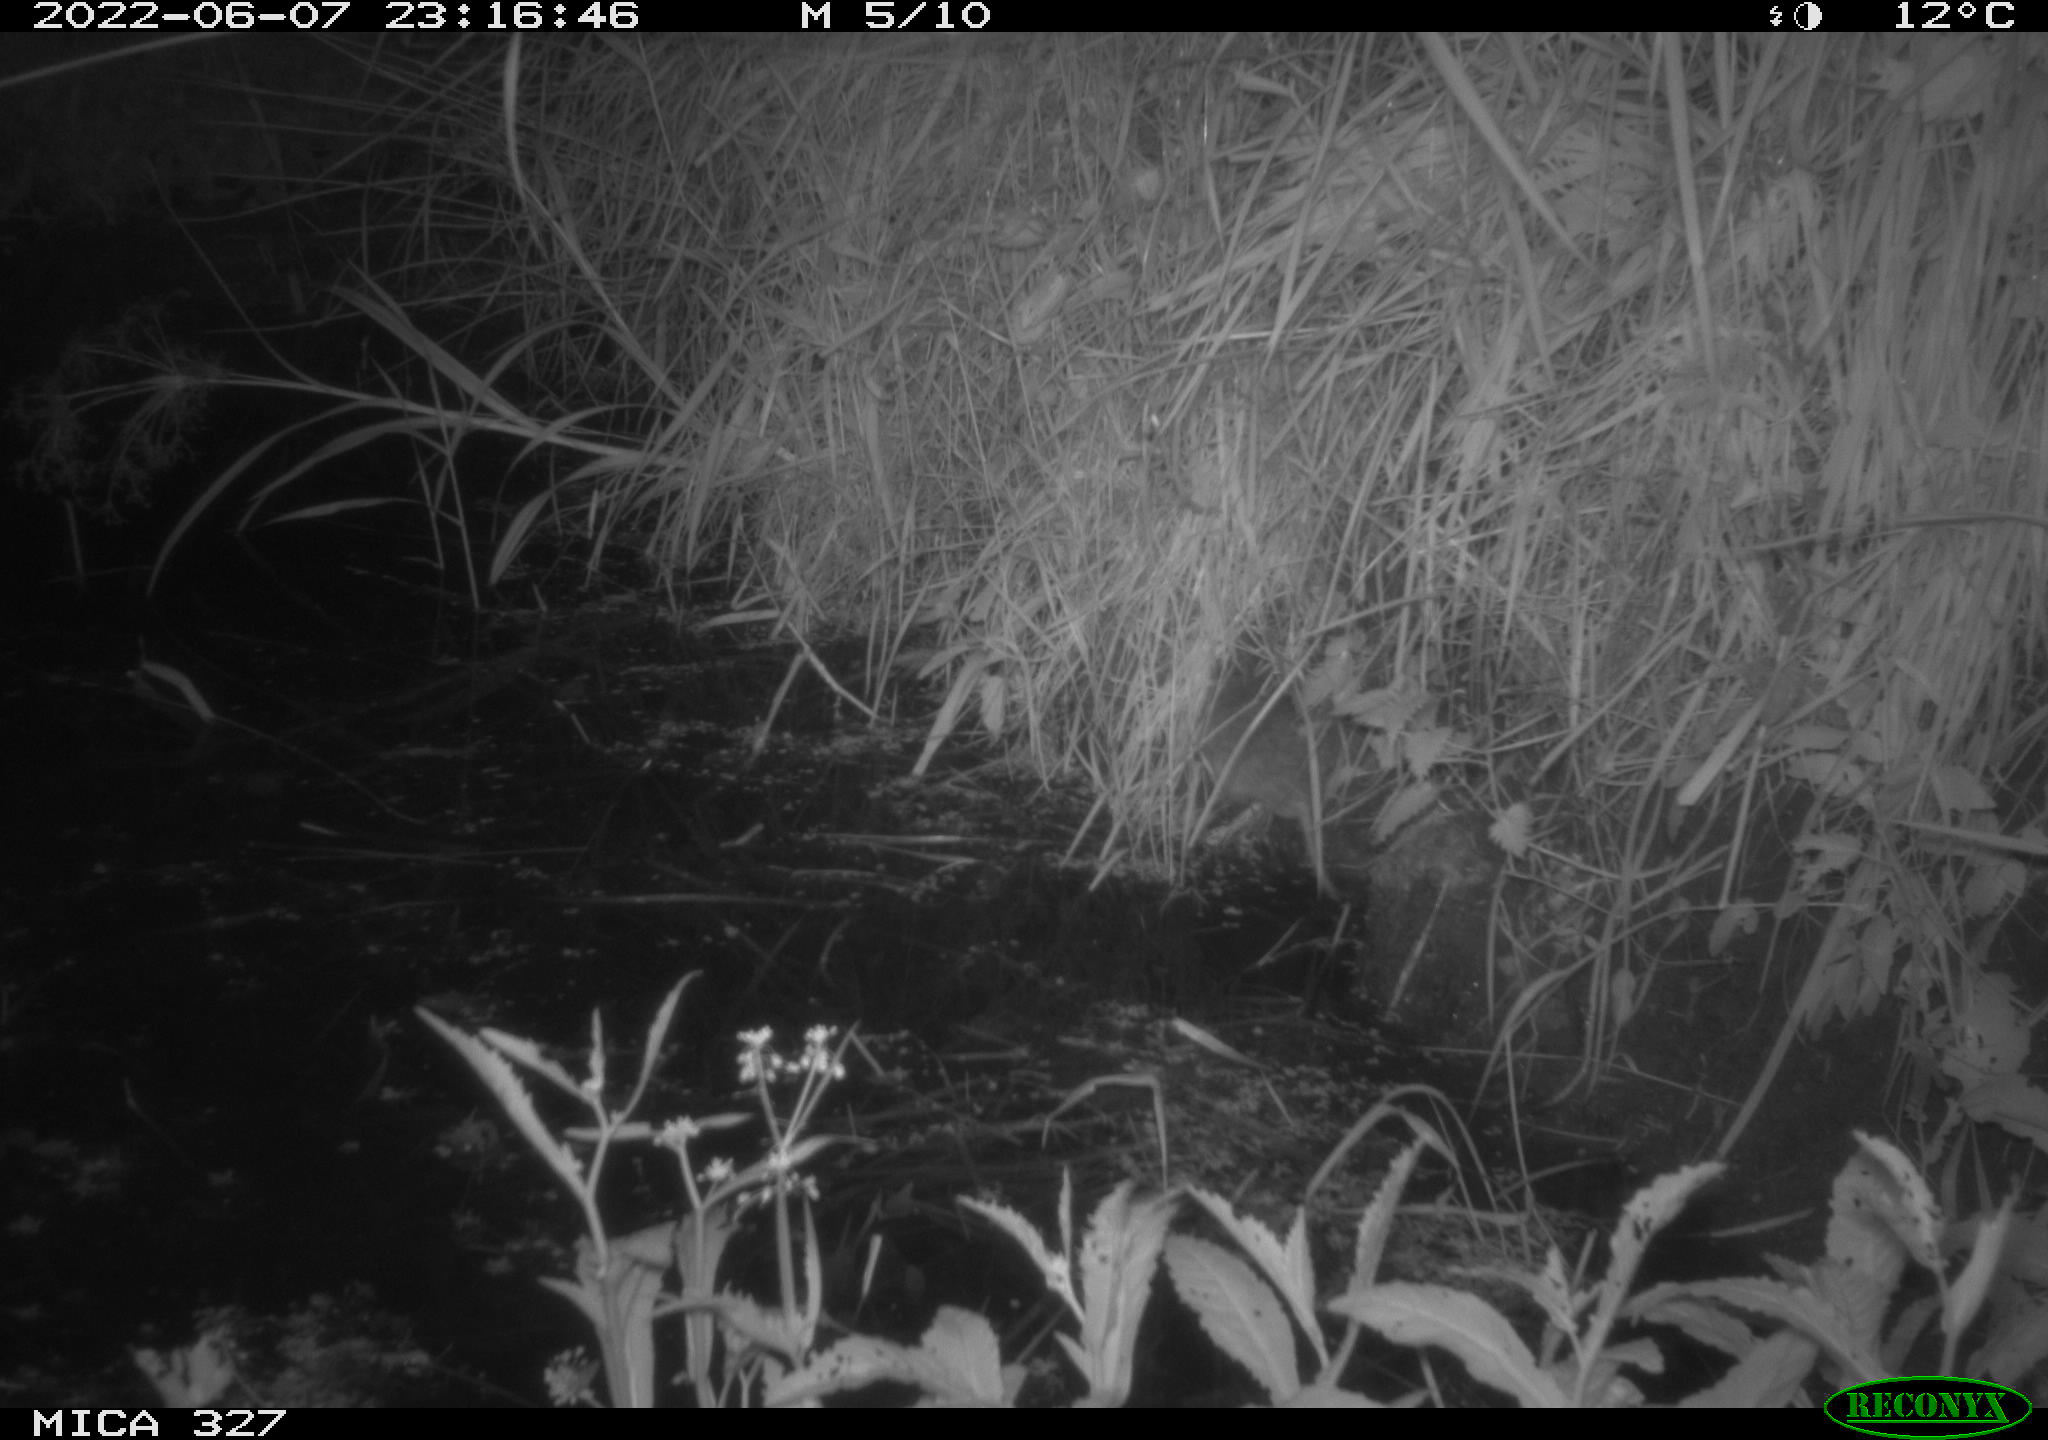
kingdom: Animalia
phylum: Chordata
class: Mammalia
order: Rodentia
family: Muridae
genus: Rattus
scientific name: Rattus norvegicus
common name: Brown rat
